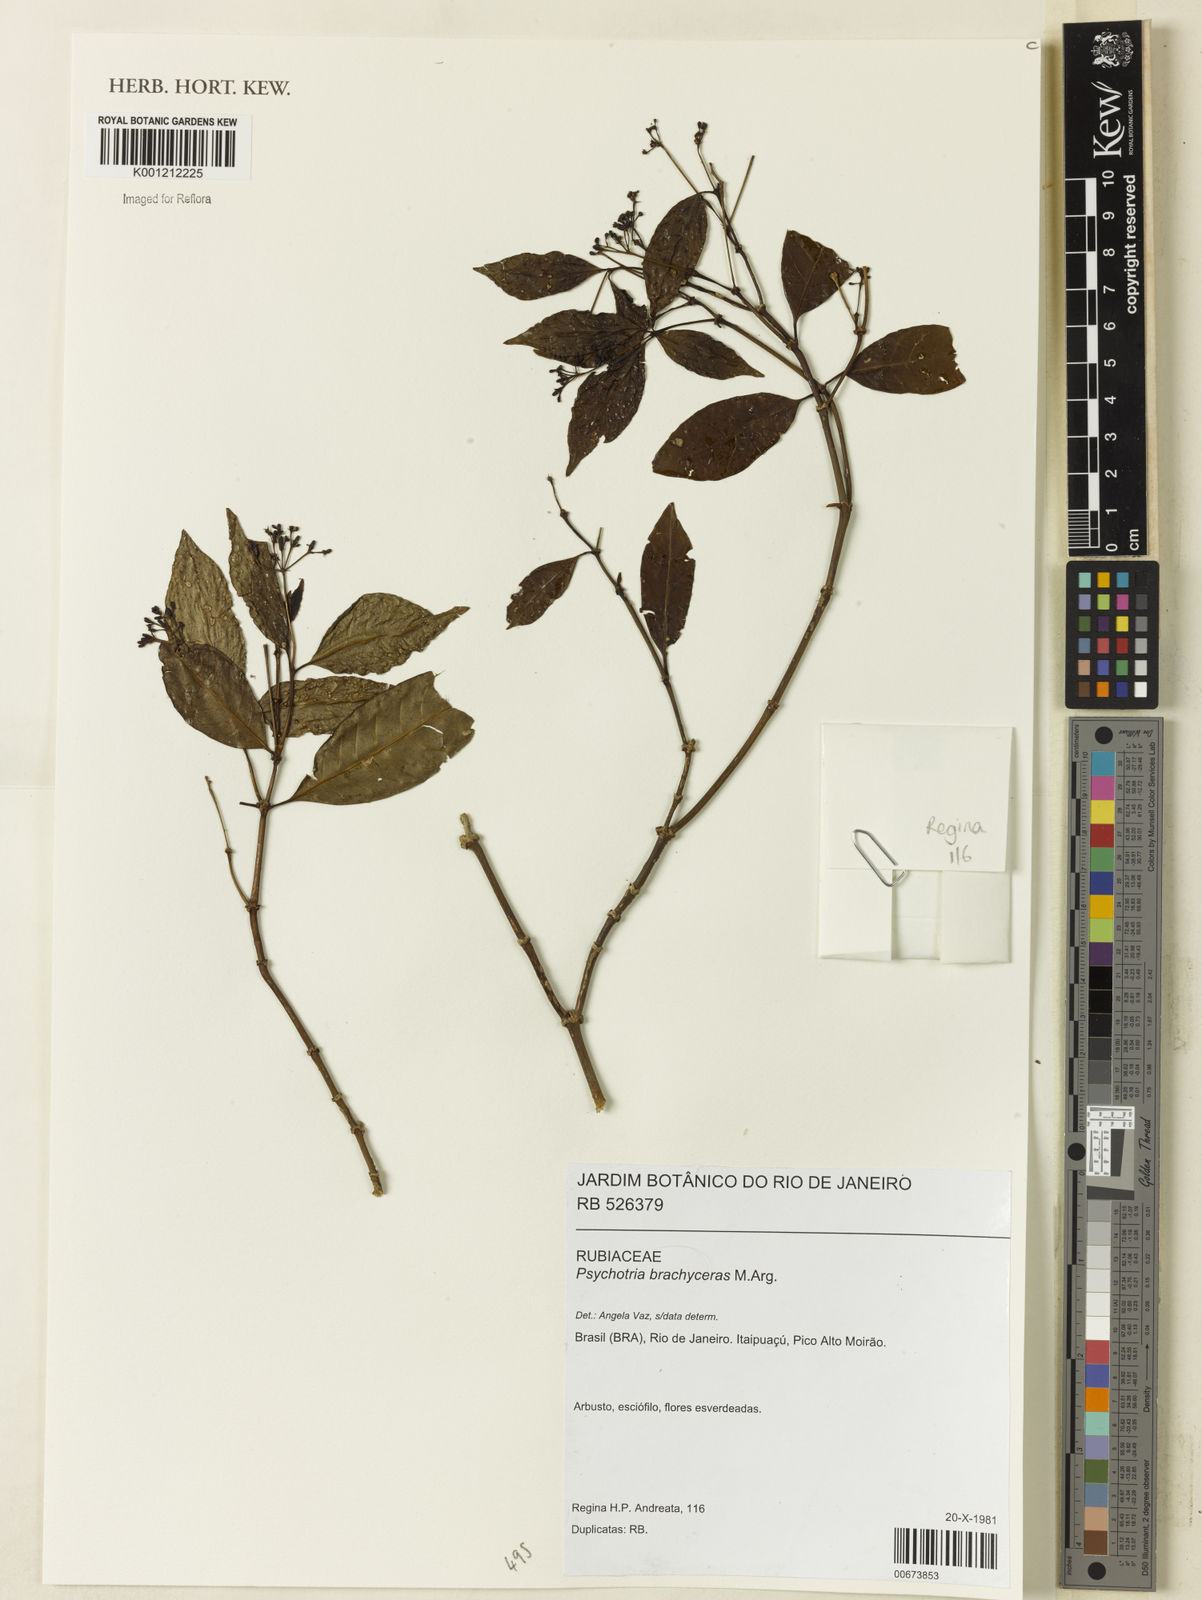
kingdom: Plantae
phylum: Tracheophyta
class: Magnoliopsida
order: Gentianales
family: Rubiaceae
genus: Psychotria
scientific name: Psychotria
